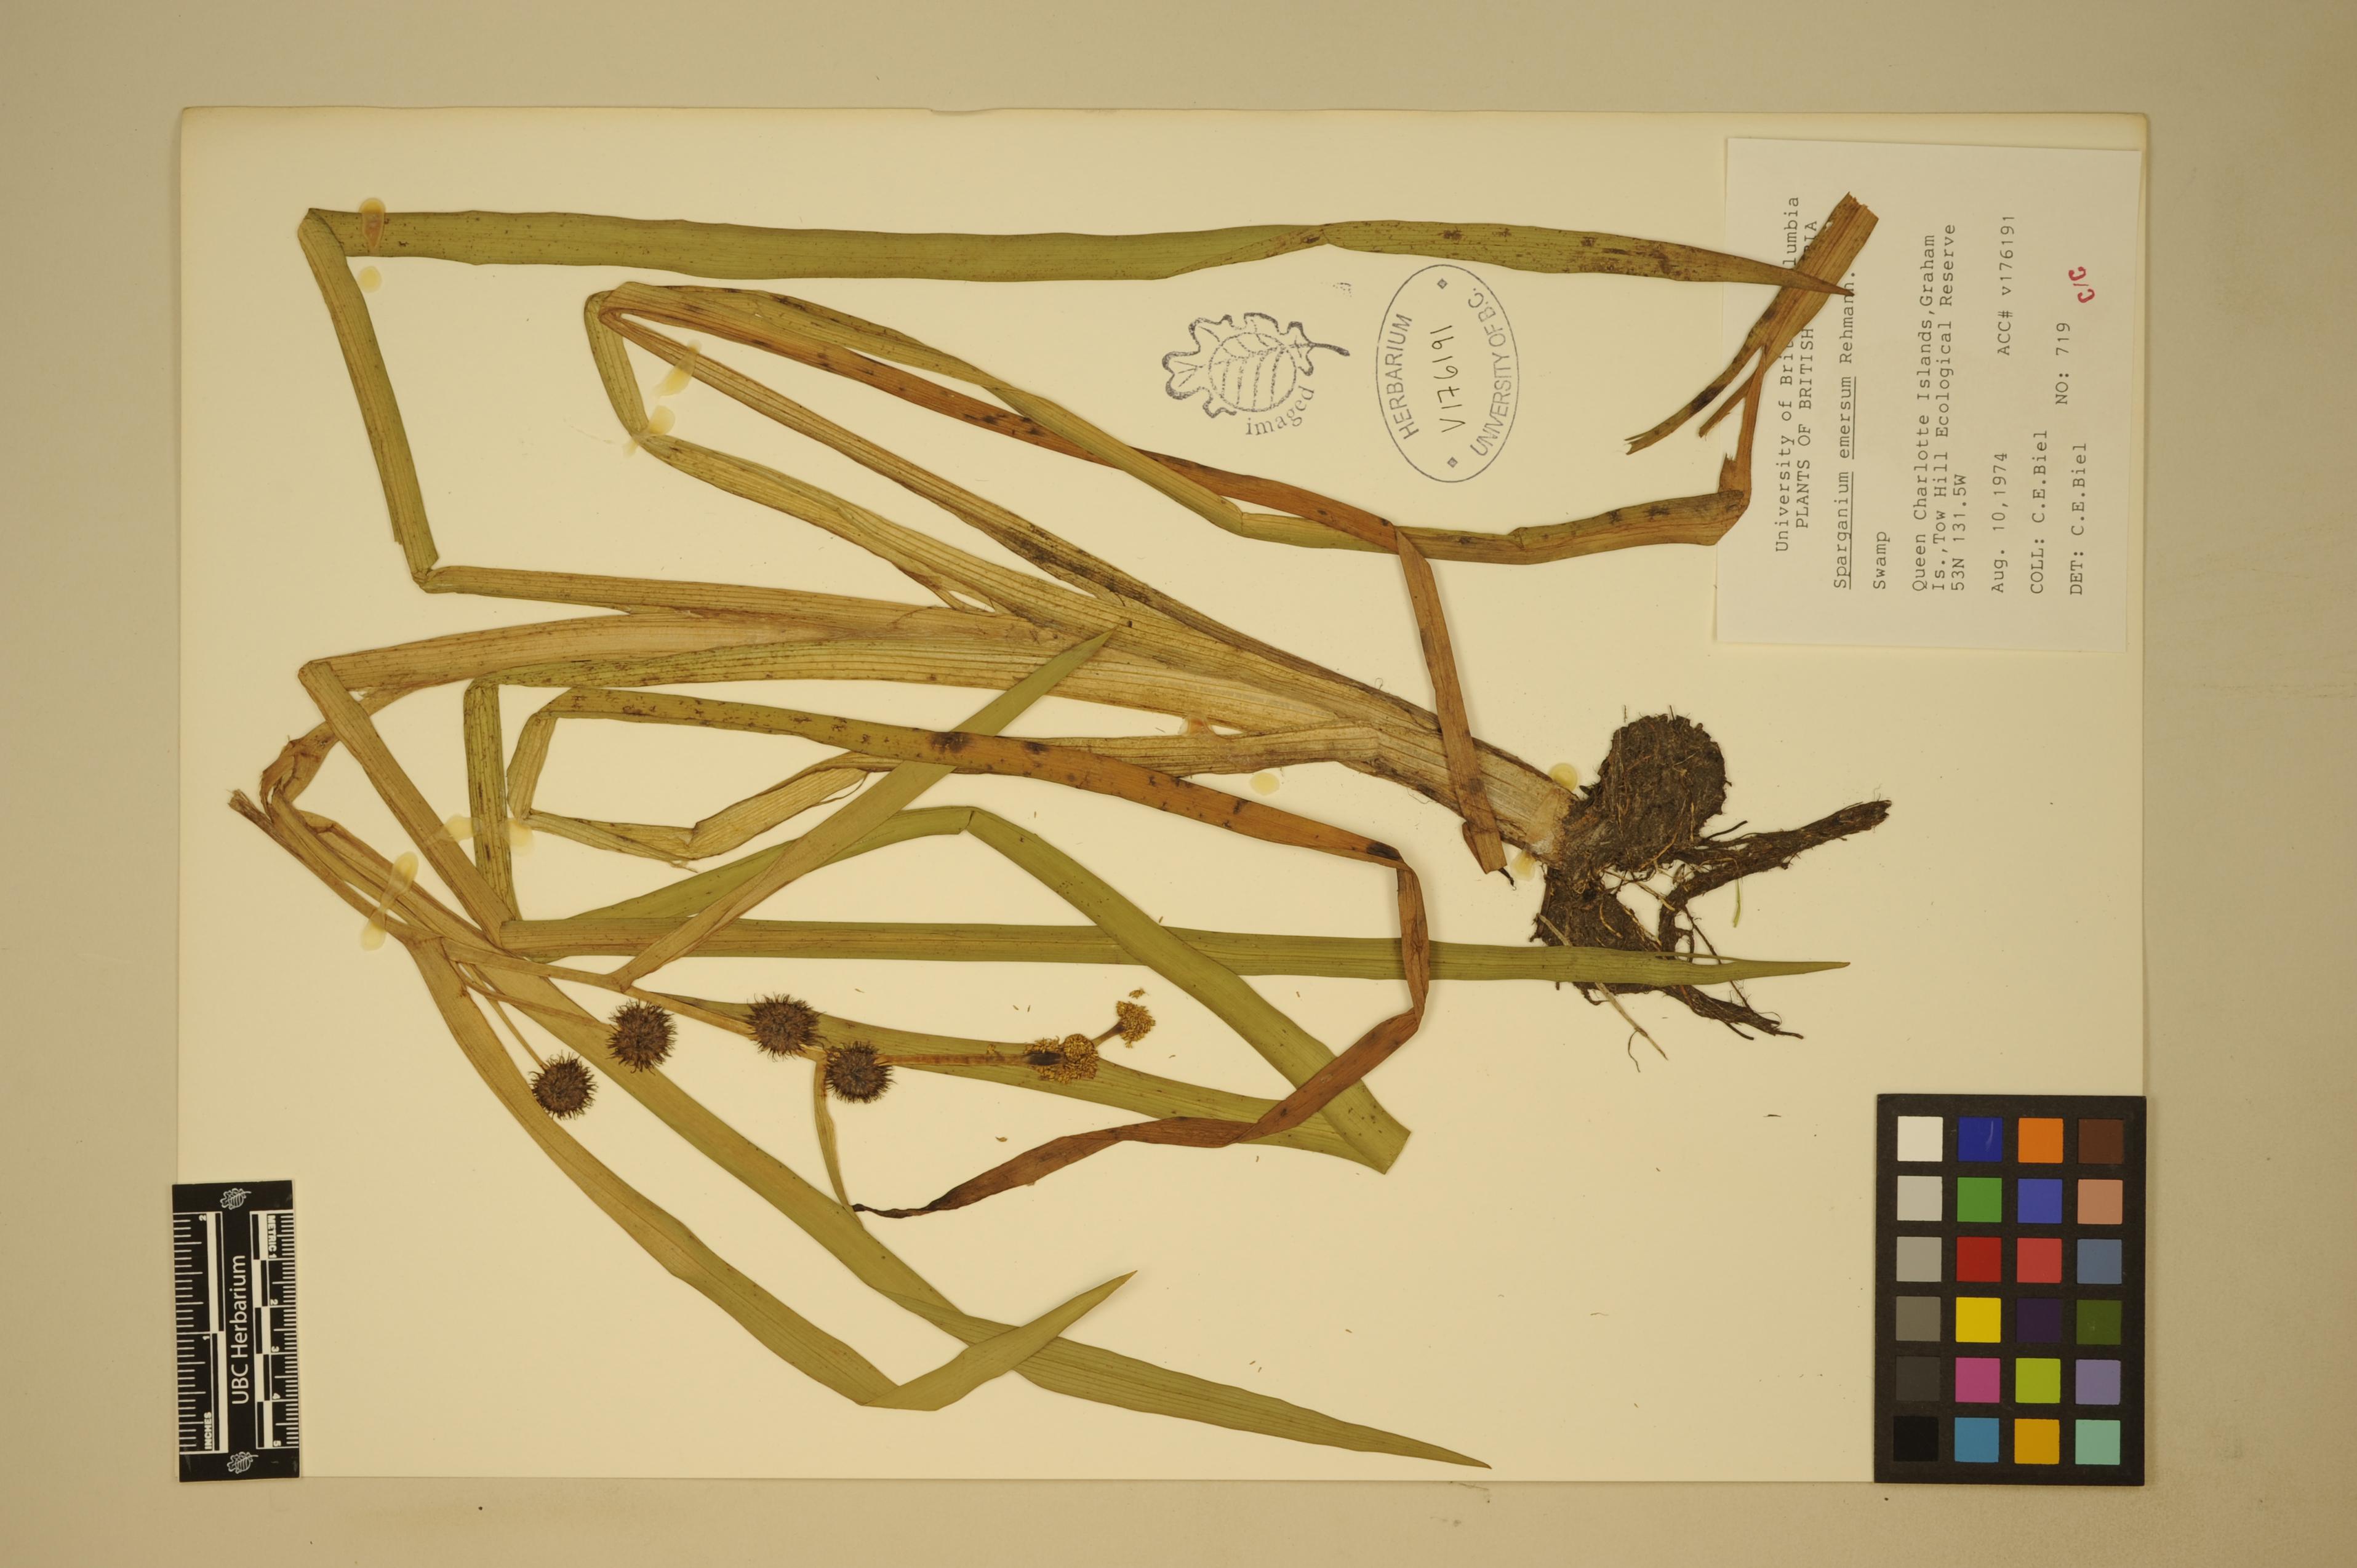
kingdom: Plantae
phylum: Tracheophyta
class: Liliopsida
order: Poales
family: Typhaceae
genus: Sparganium
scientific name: Sparganium emersum
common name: Unbranched bur-reed
